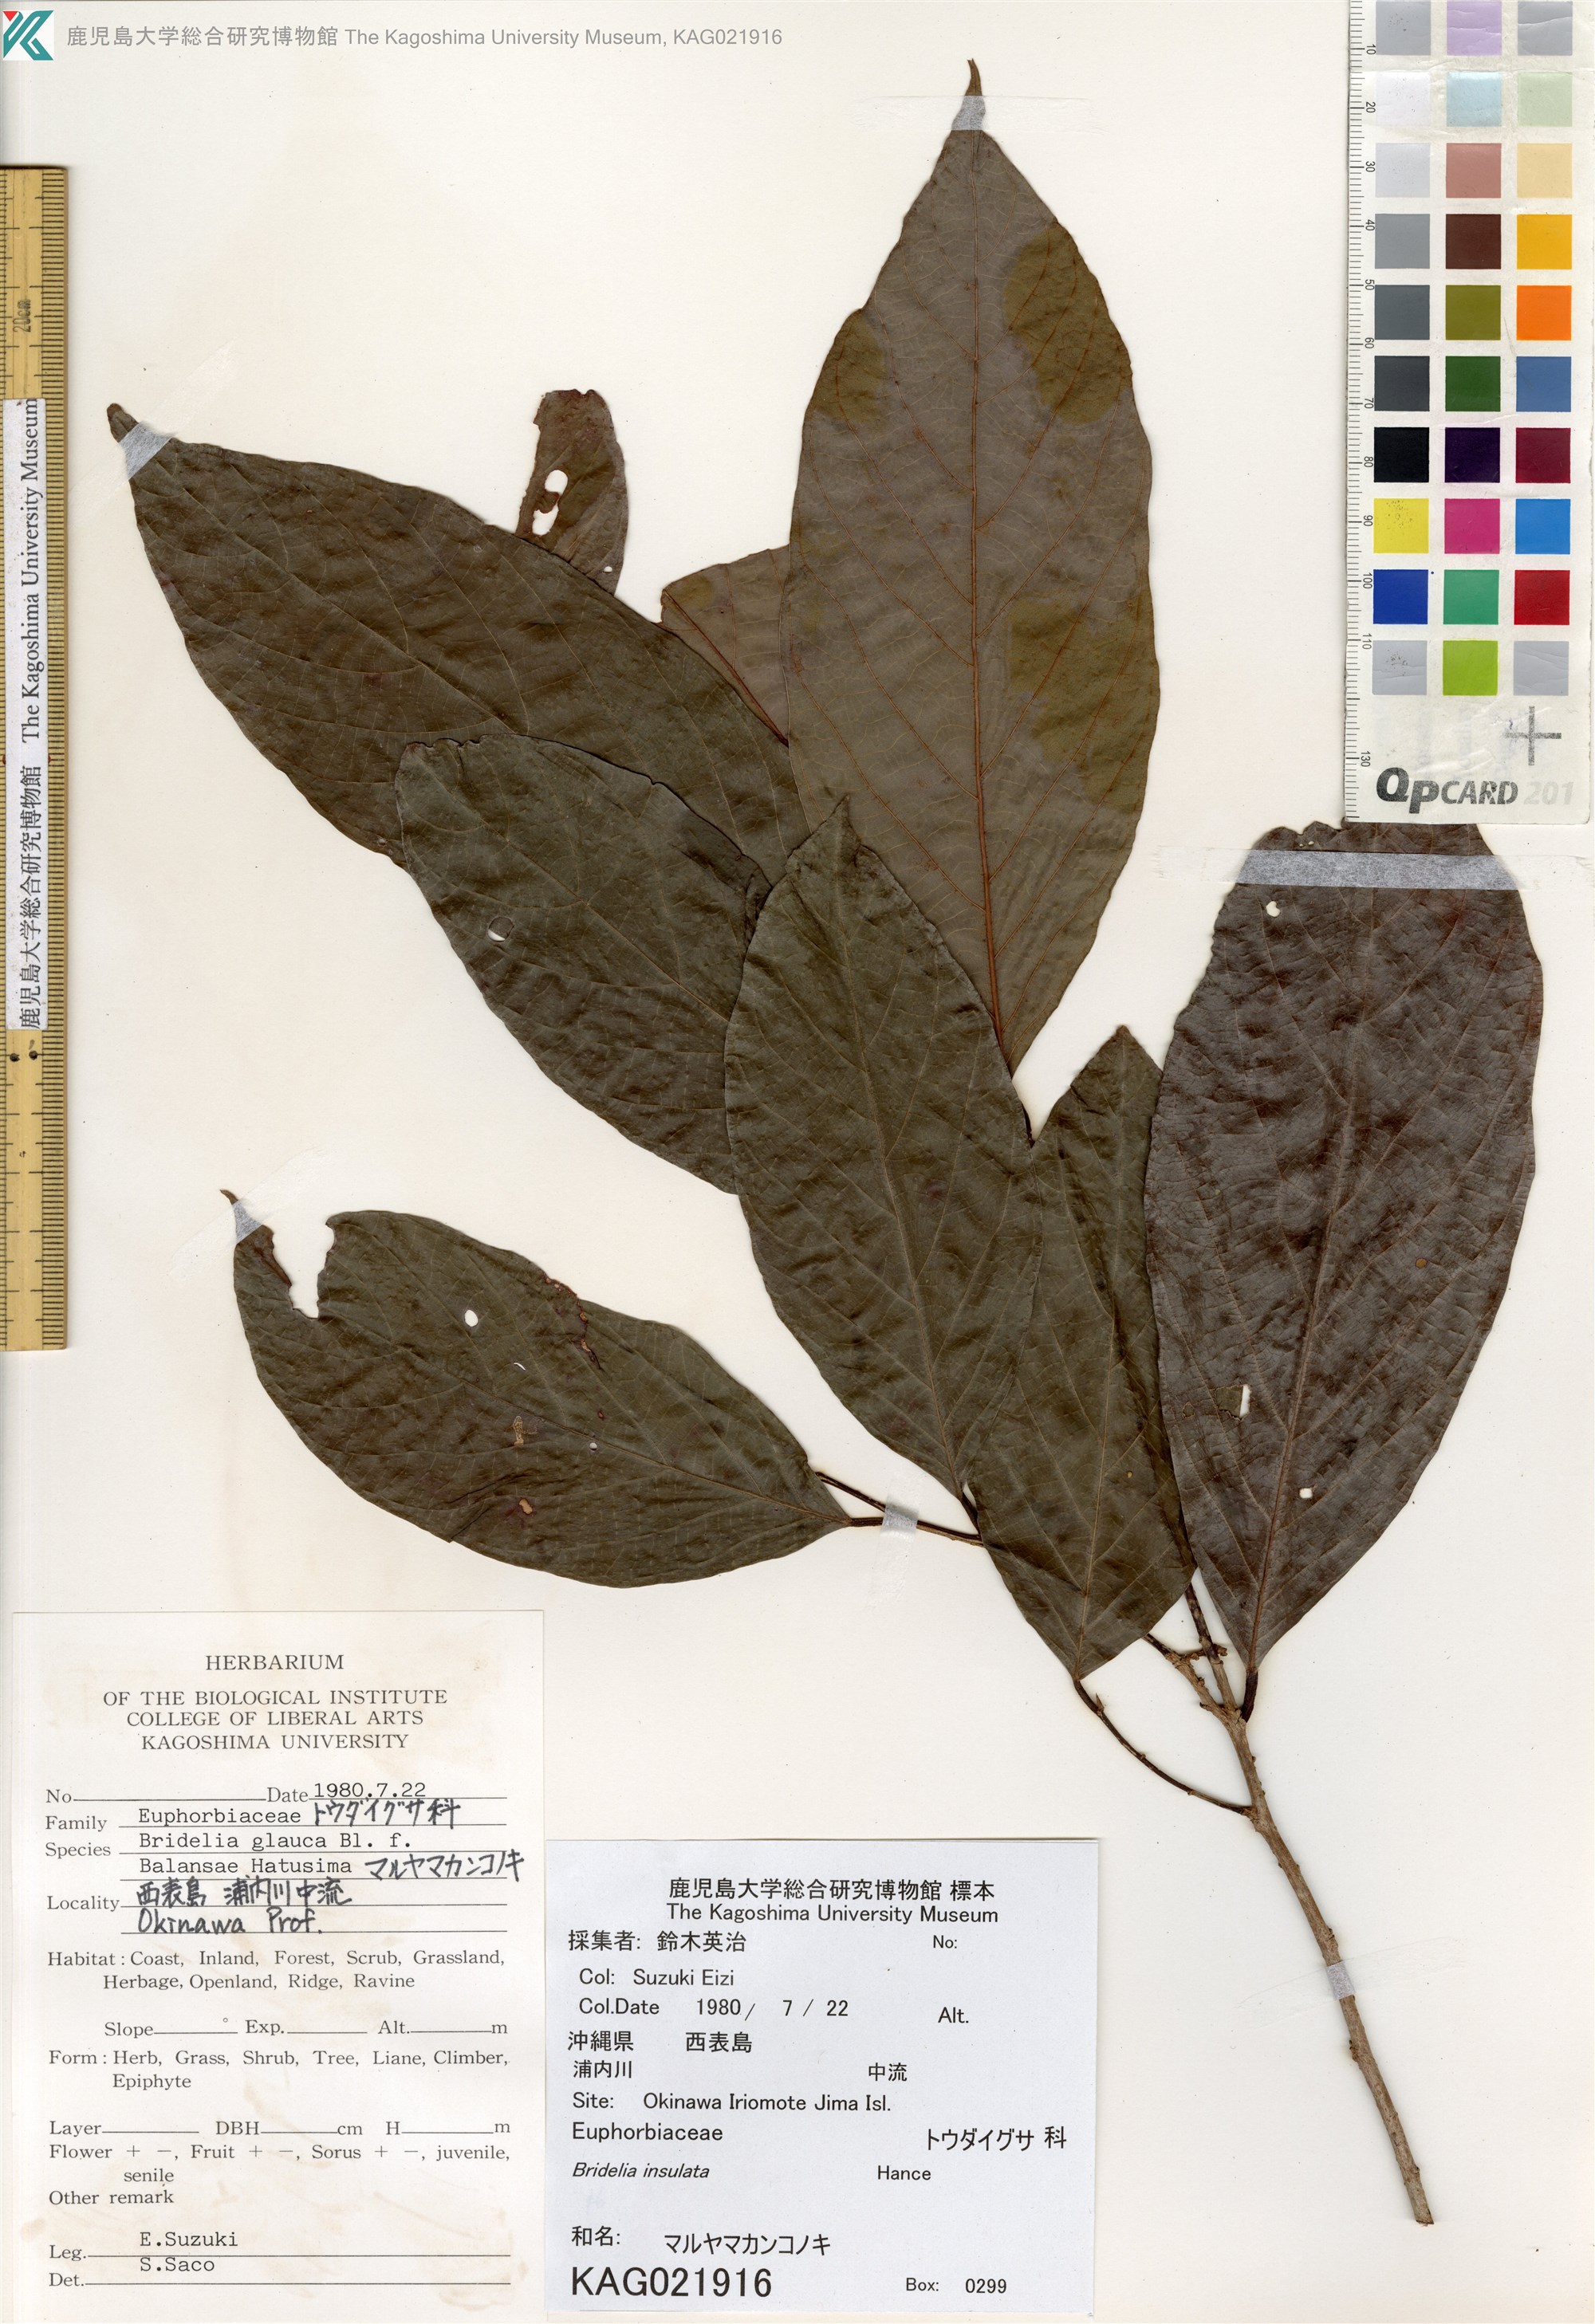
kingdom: Plantae
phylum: Tracheophyta
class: Magnoliopsida
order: Malpighiales
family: Phyllanthaceae
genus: Bridelia
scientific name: Bridelia balansae
